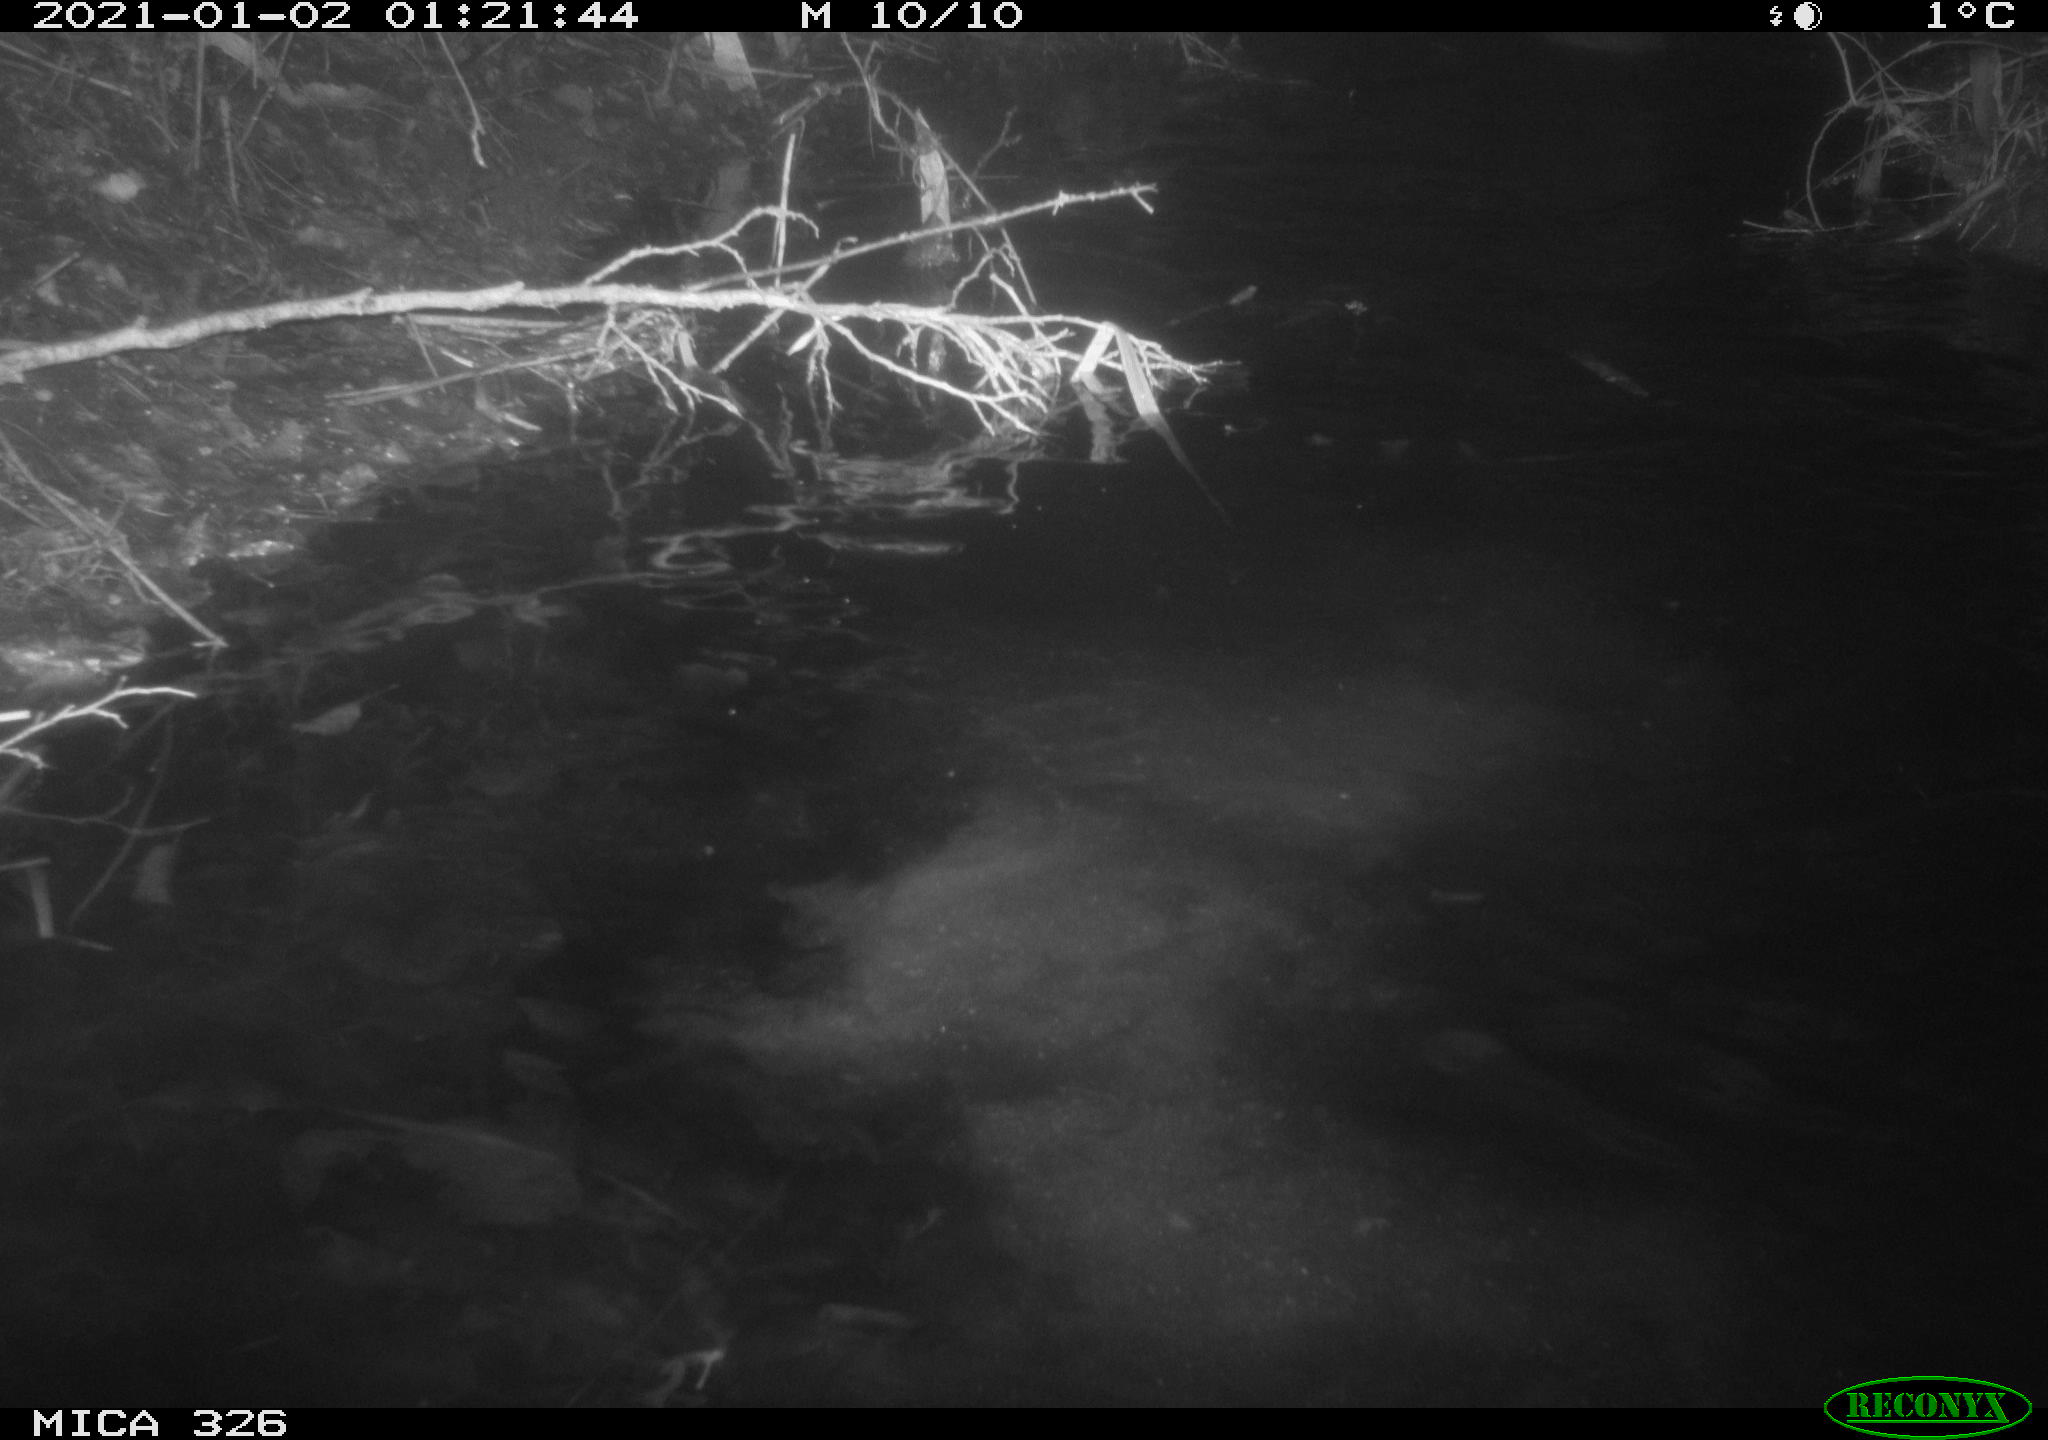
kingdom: Animalia
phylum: Chordata
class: Mammalia
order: Rodentia
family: Myocastoridae
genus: Myocastor
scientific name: Myocastor coypus
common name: Coypu
